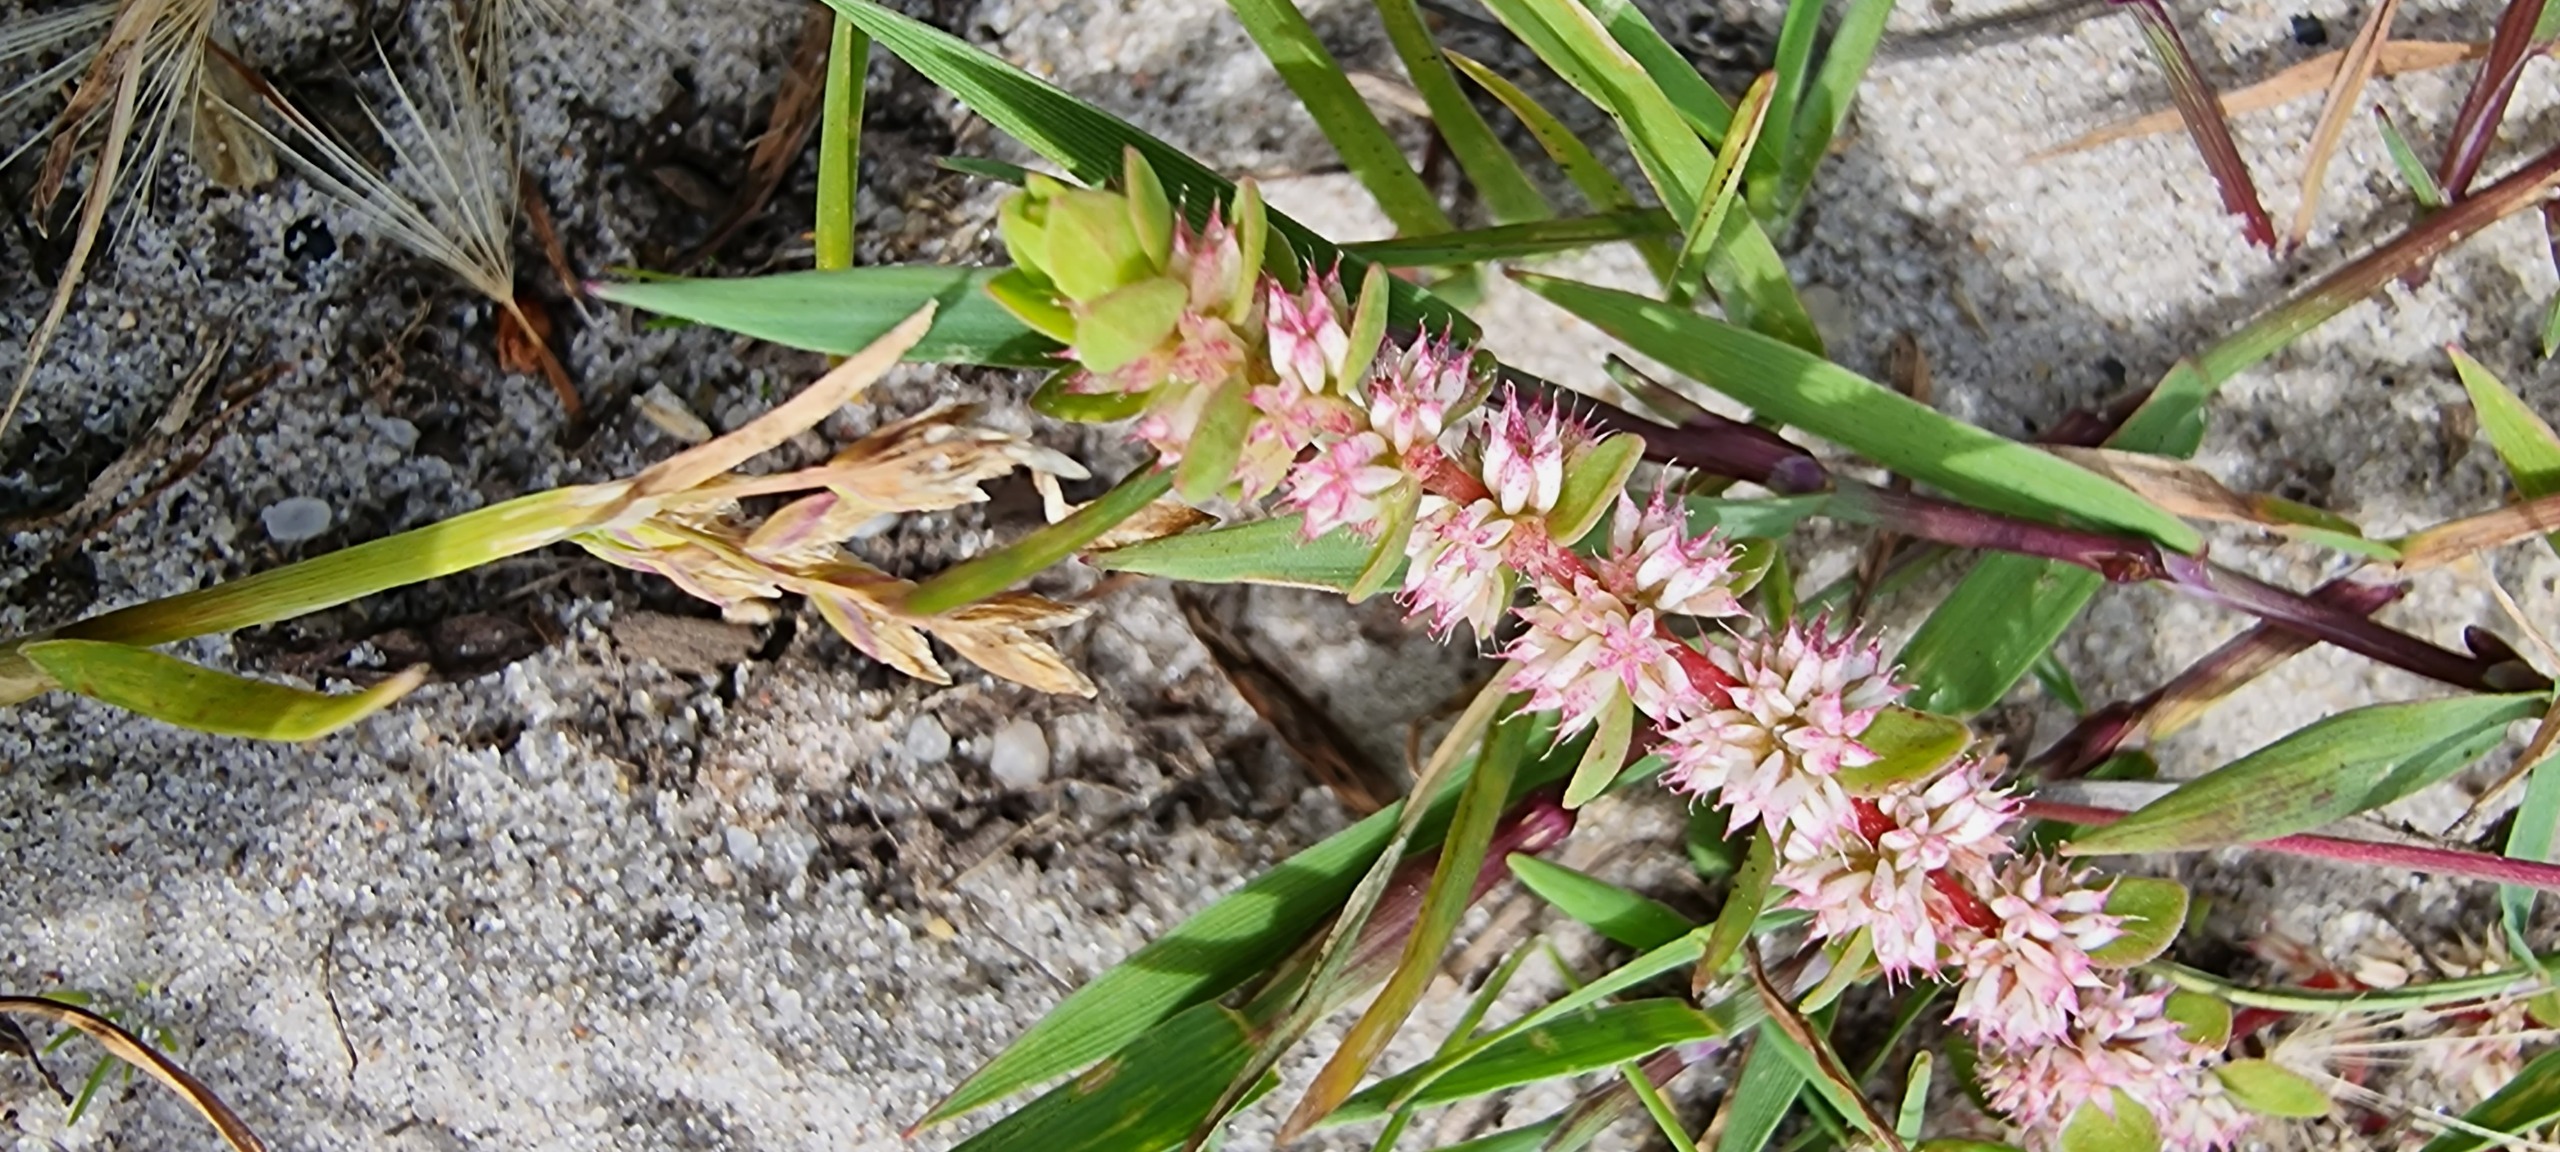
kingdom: Plantae
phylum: Tracheophyta
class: Magnoliopsida
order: Caryophyllales
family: Caryophyllaceae
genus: Illecebrum
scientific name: Illecebrum verticillatum
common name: Bruskbæger
